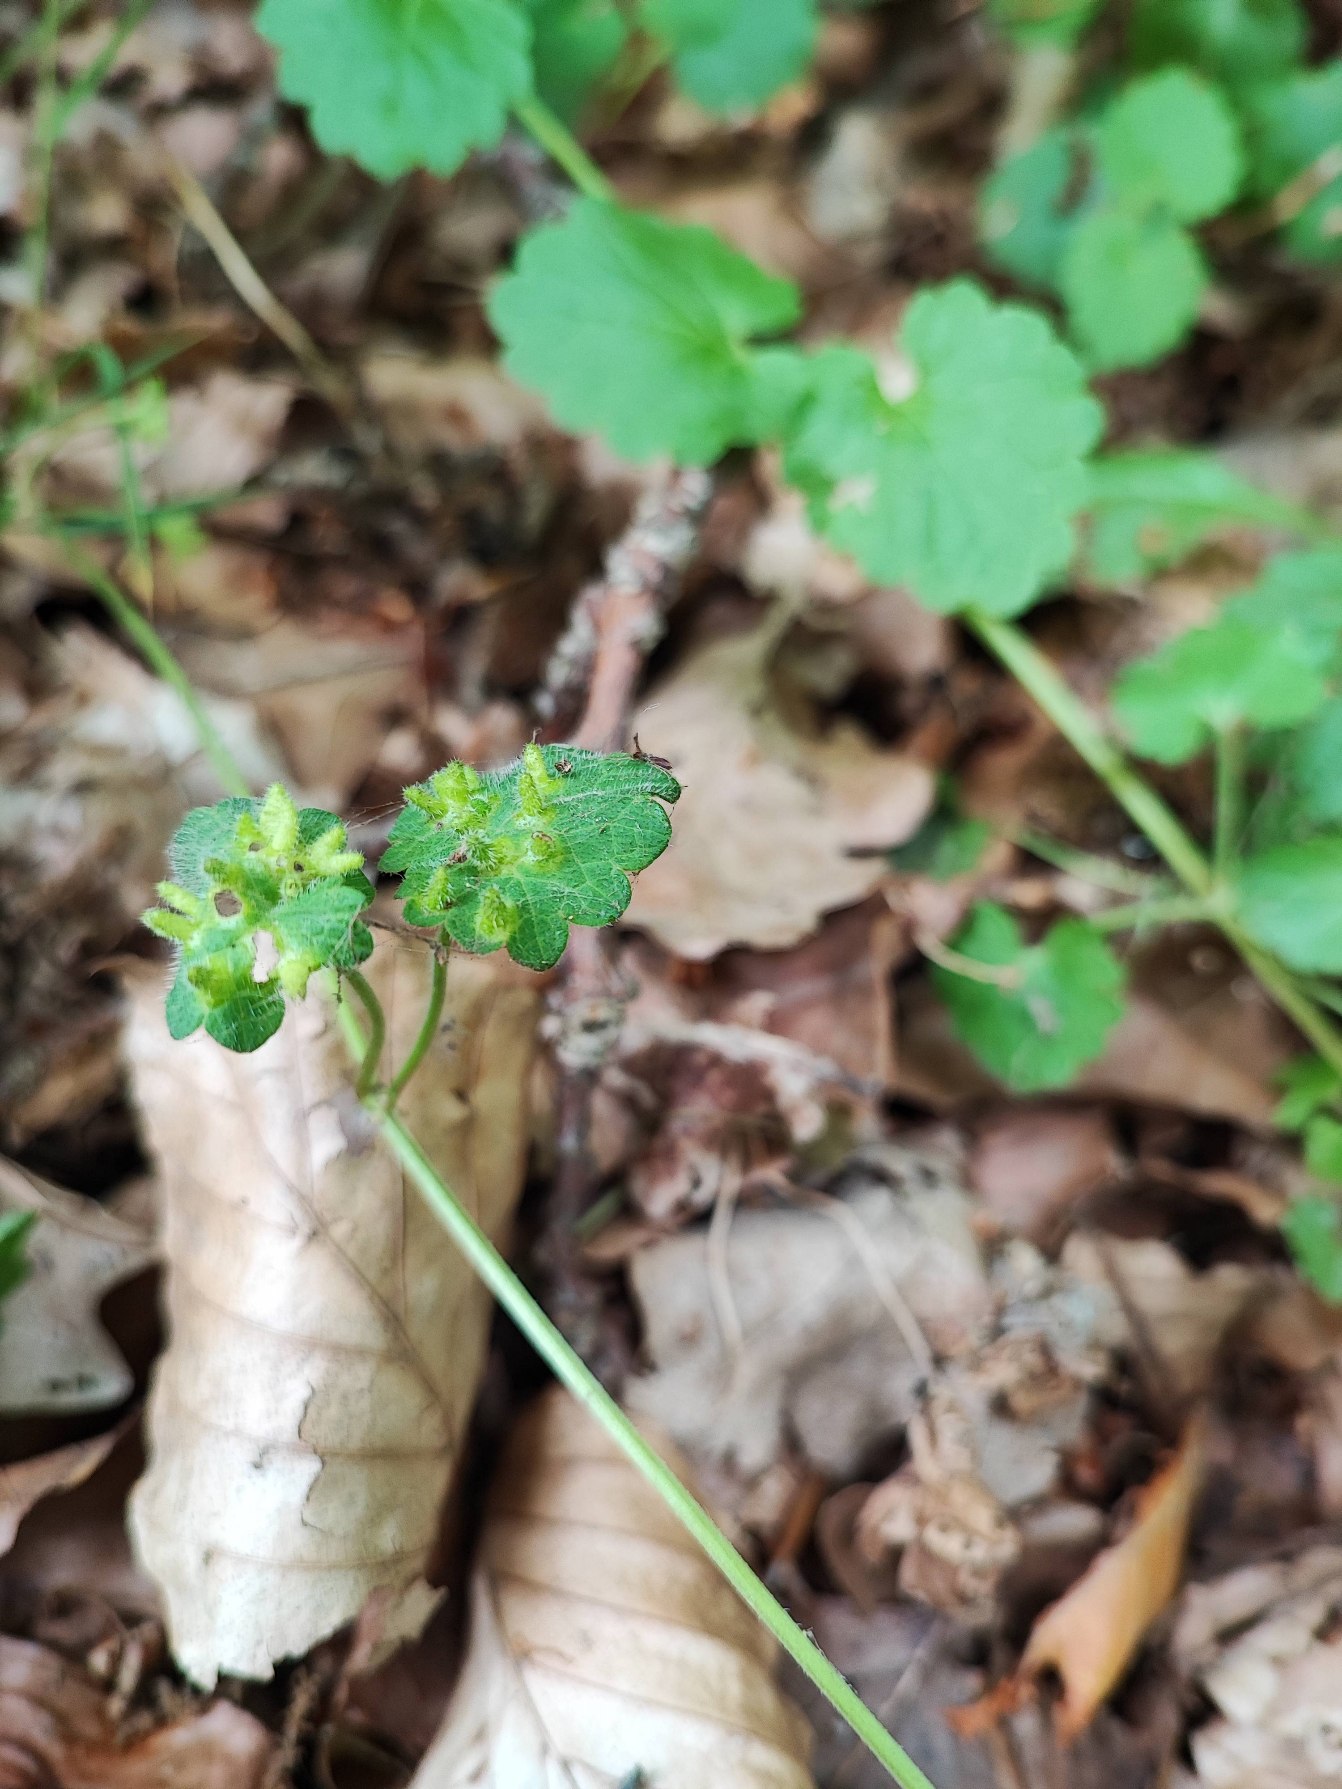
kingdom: Animalia
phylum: Arthropoda
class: Insecta
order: Diptera
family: Cecidomyiidae
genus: Rondaniola
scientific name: Rondaniola bursaria
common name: Hattifnatgalmyg
